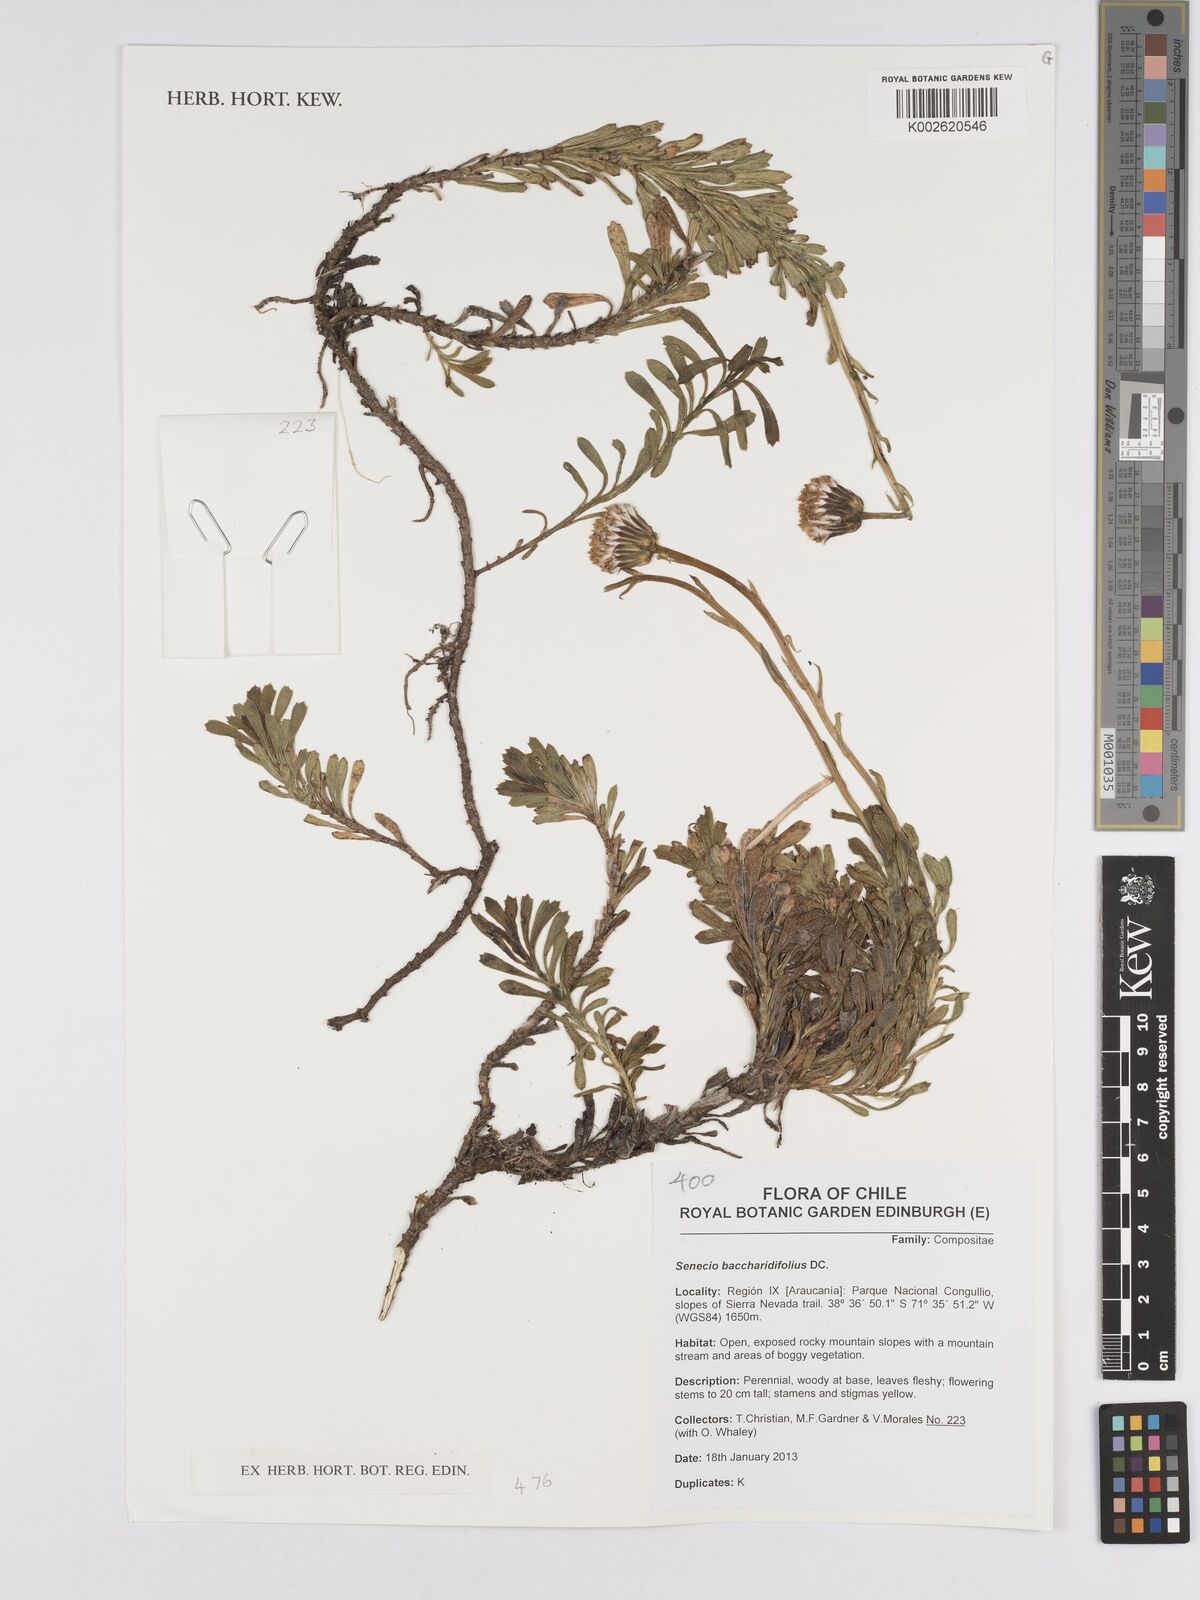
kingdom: Plantae
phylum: Tracheophyta
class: Magnoliopsida
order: Asterales
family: Asteraceae
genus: Senecio
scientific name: Senecio baccharidifolius
